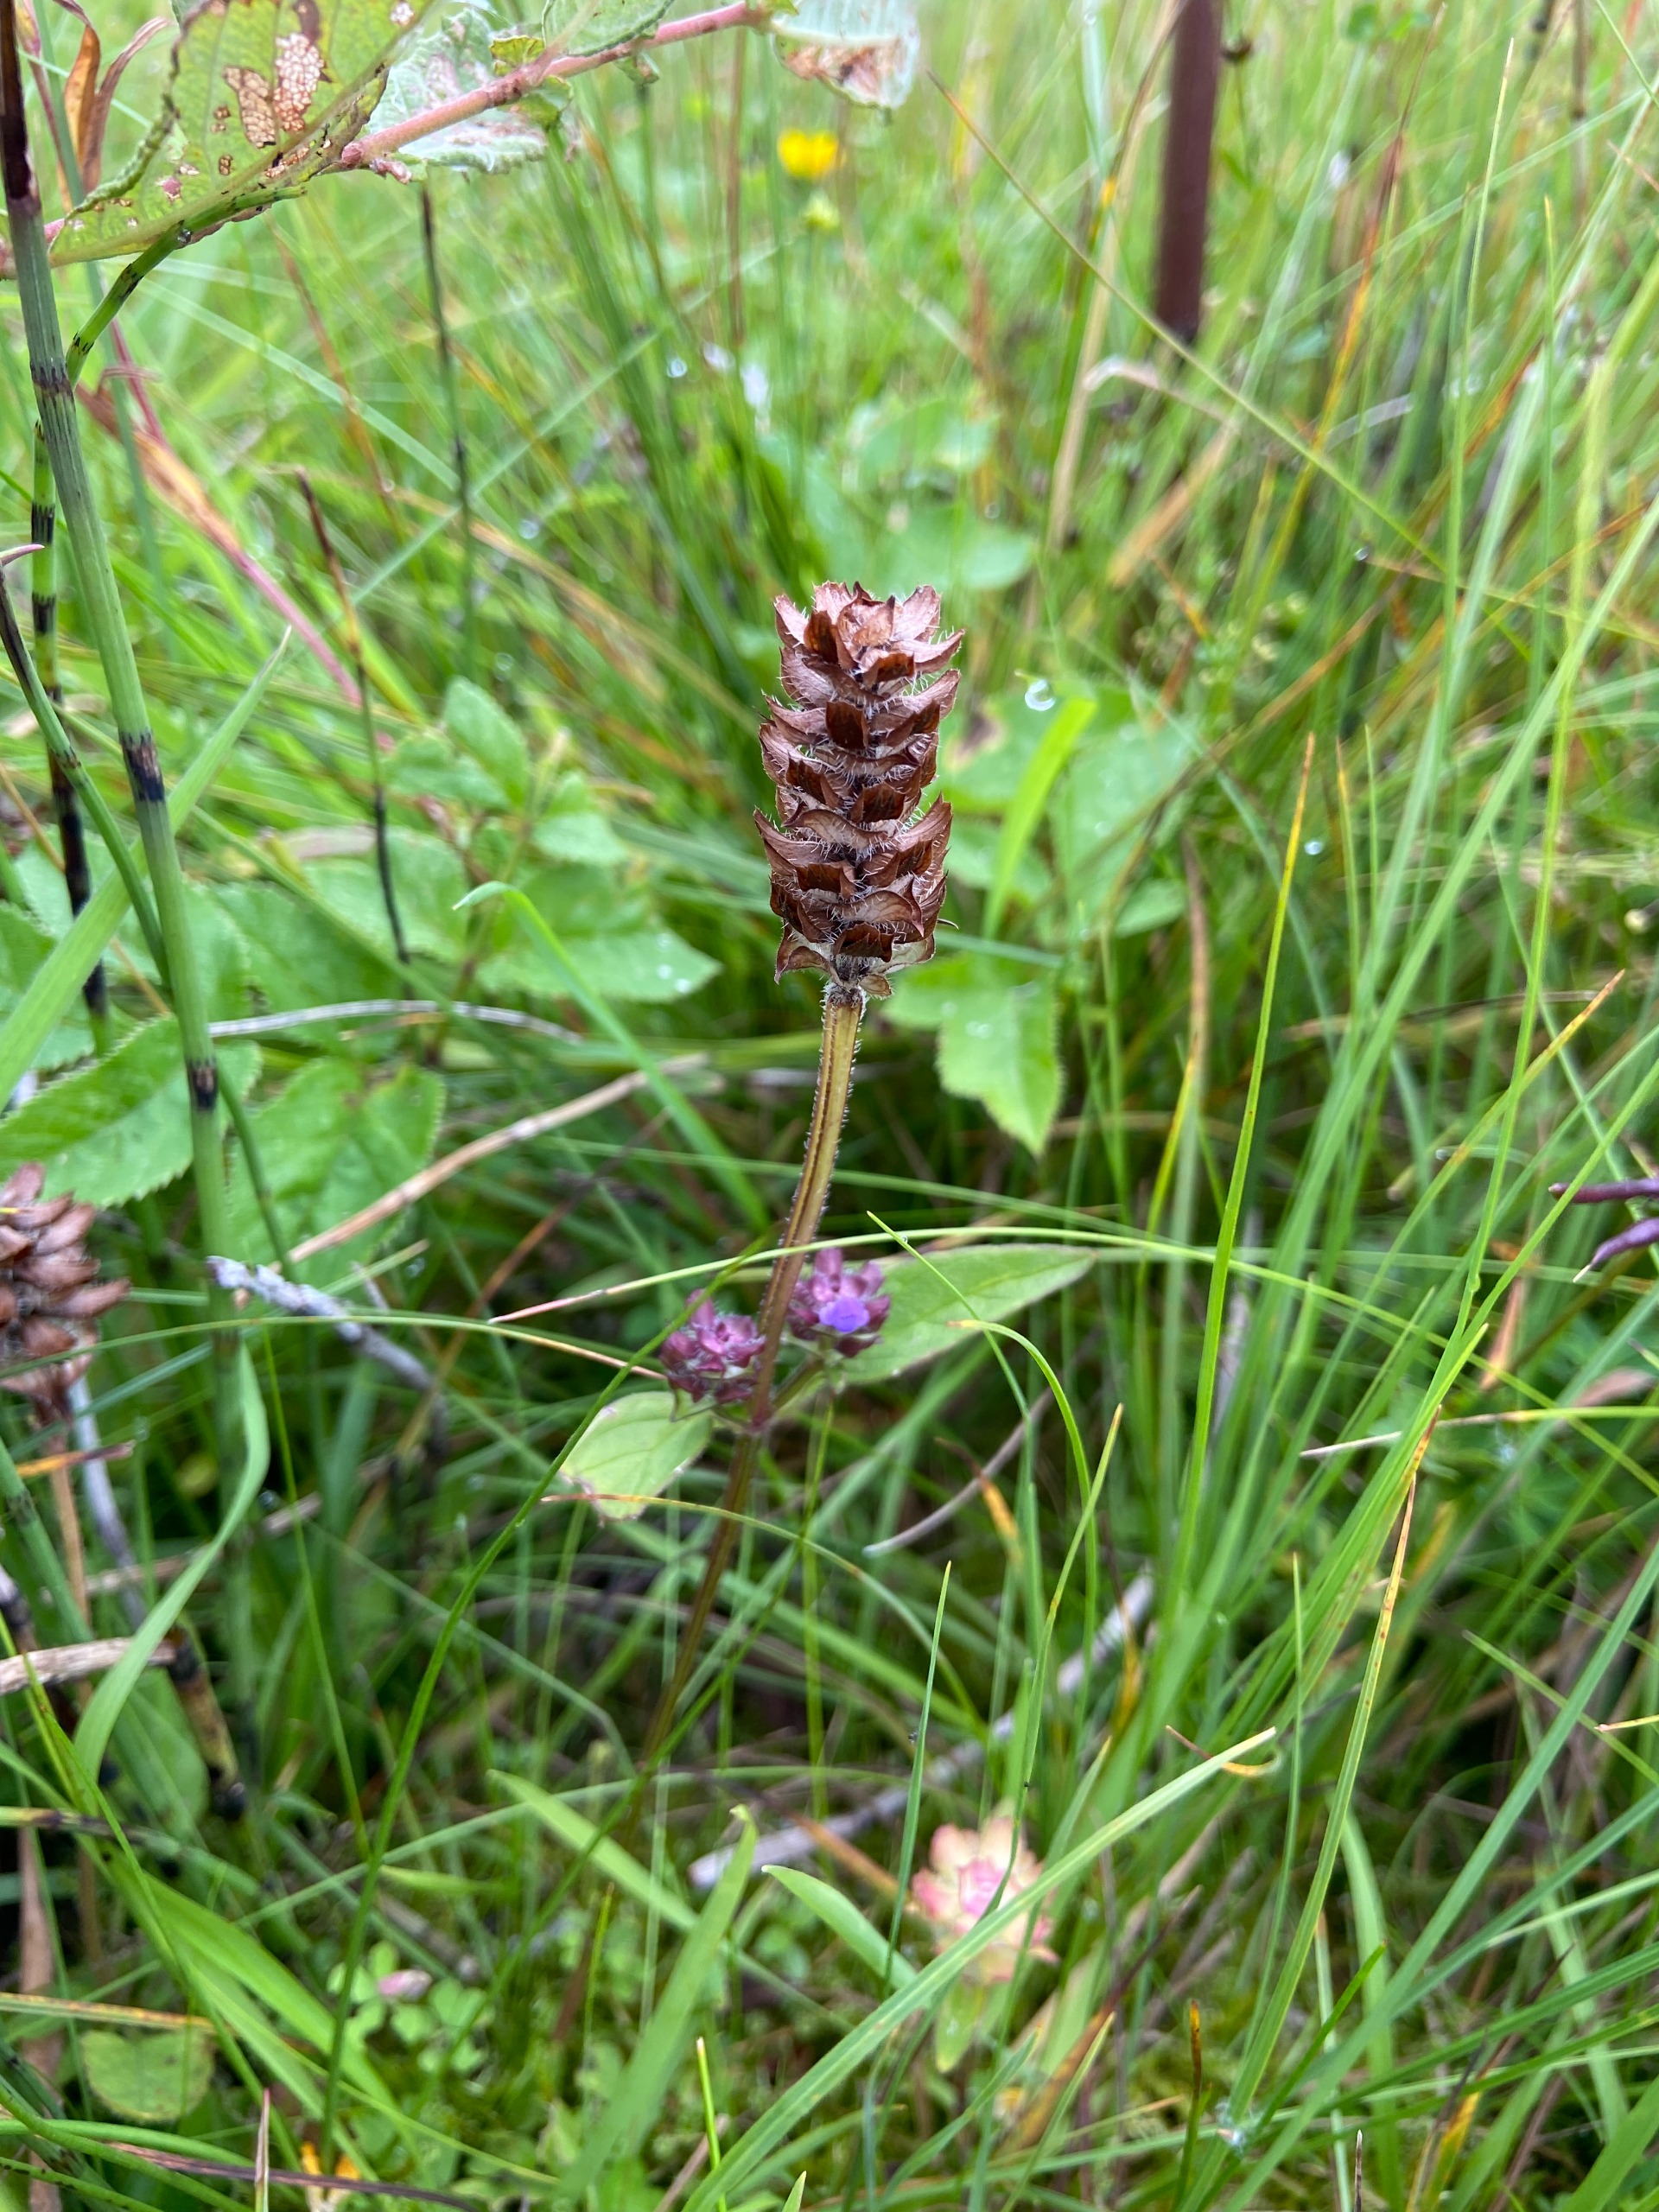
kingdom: Plantae
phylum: Tracheophyta
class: Magnoliopsida
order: Lamiales
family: Lamiaceae
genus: Prunella
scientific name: Prunella vulgaris
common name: Almindelig brunelle
